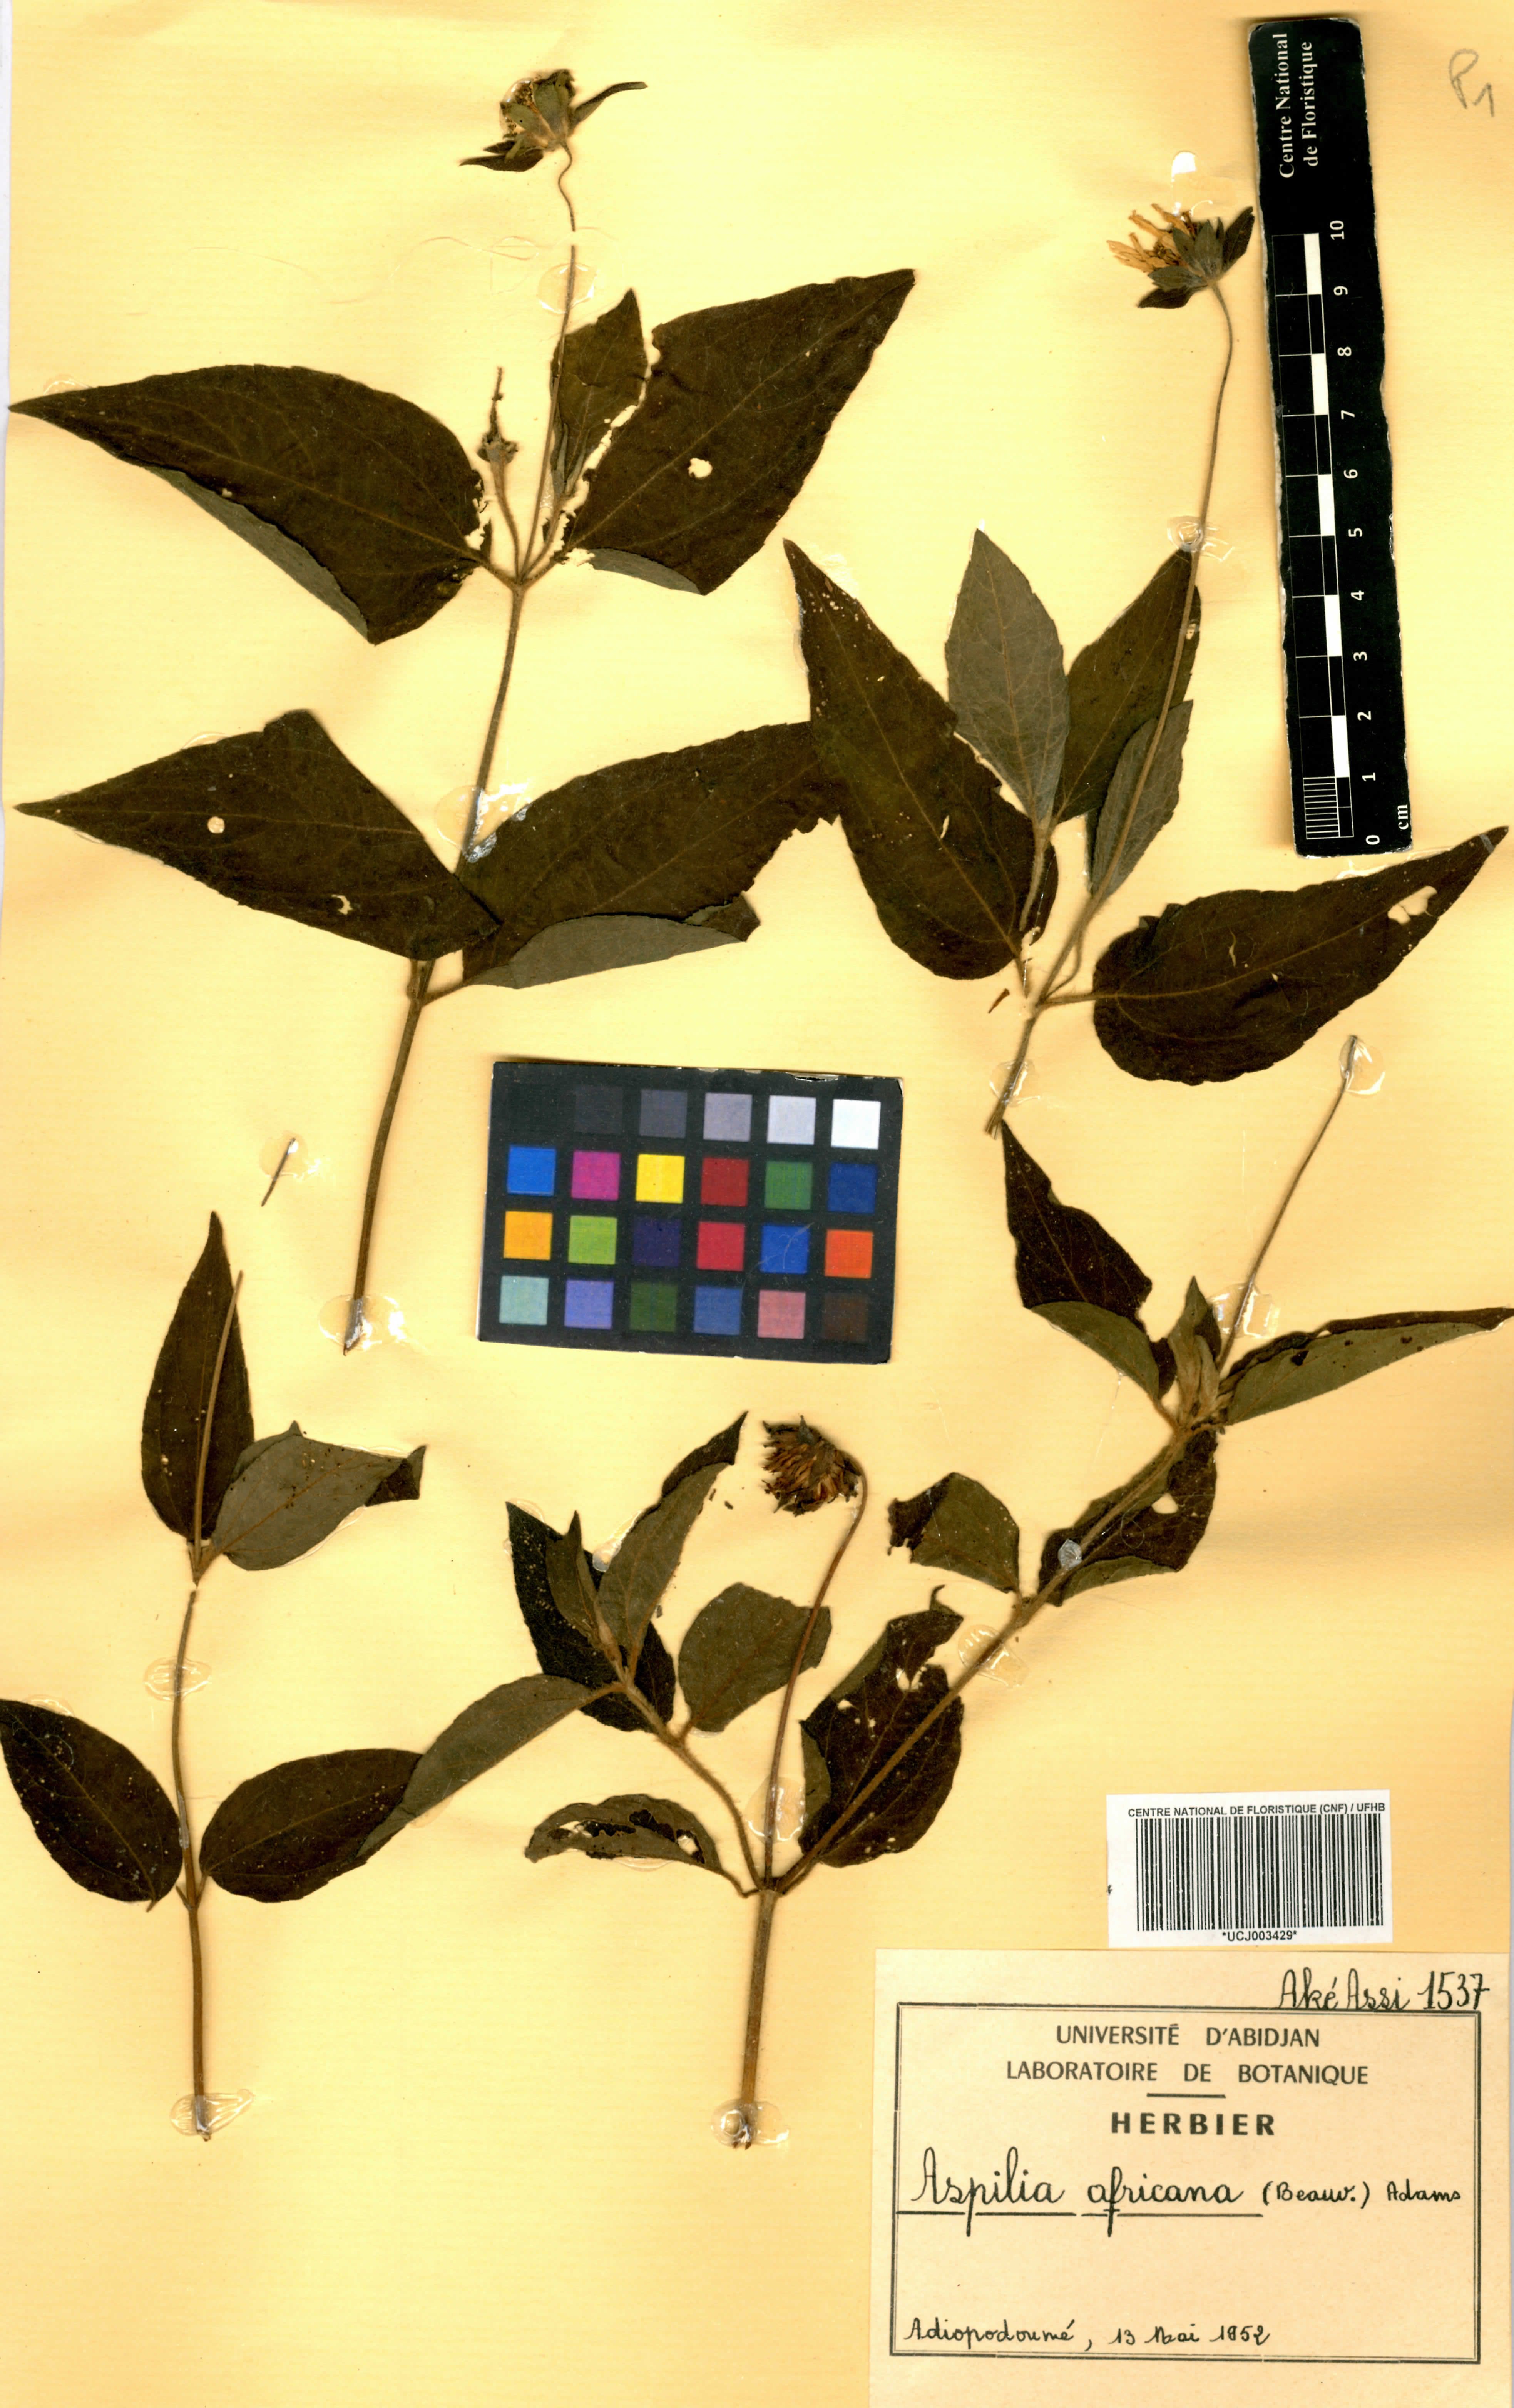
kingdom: Plantae
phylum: Tracheophyta
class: Magnoliopsida
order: Asterales
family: Asteraceae
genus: Aspilia
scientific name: Aspilia africana
